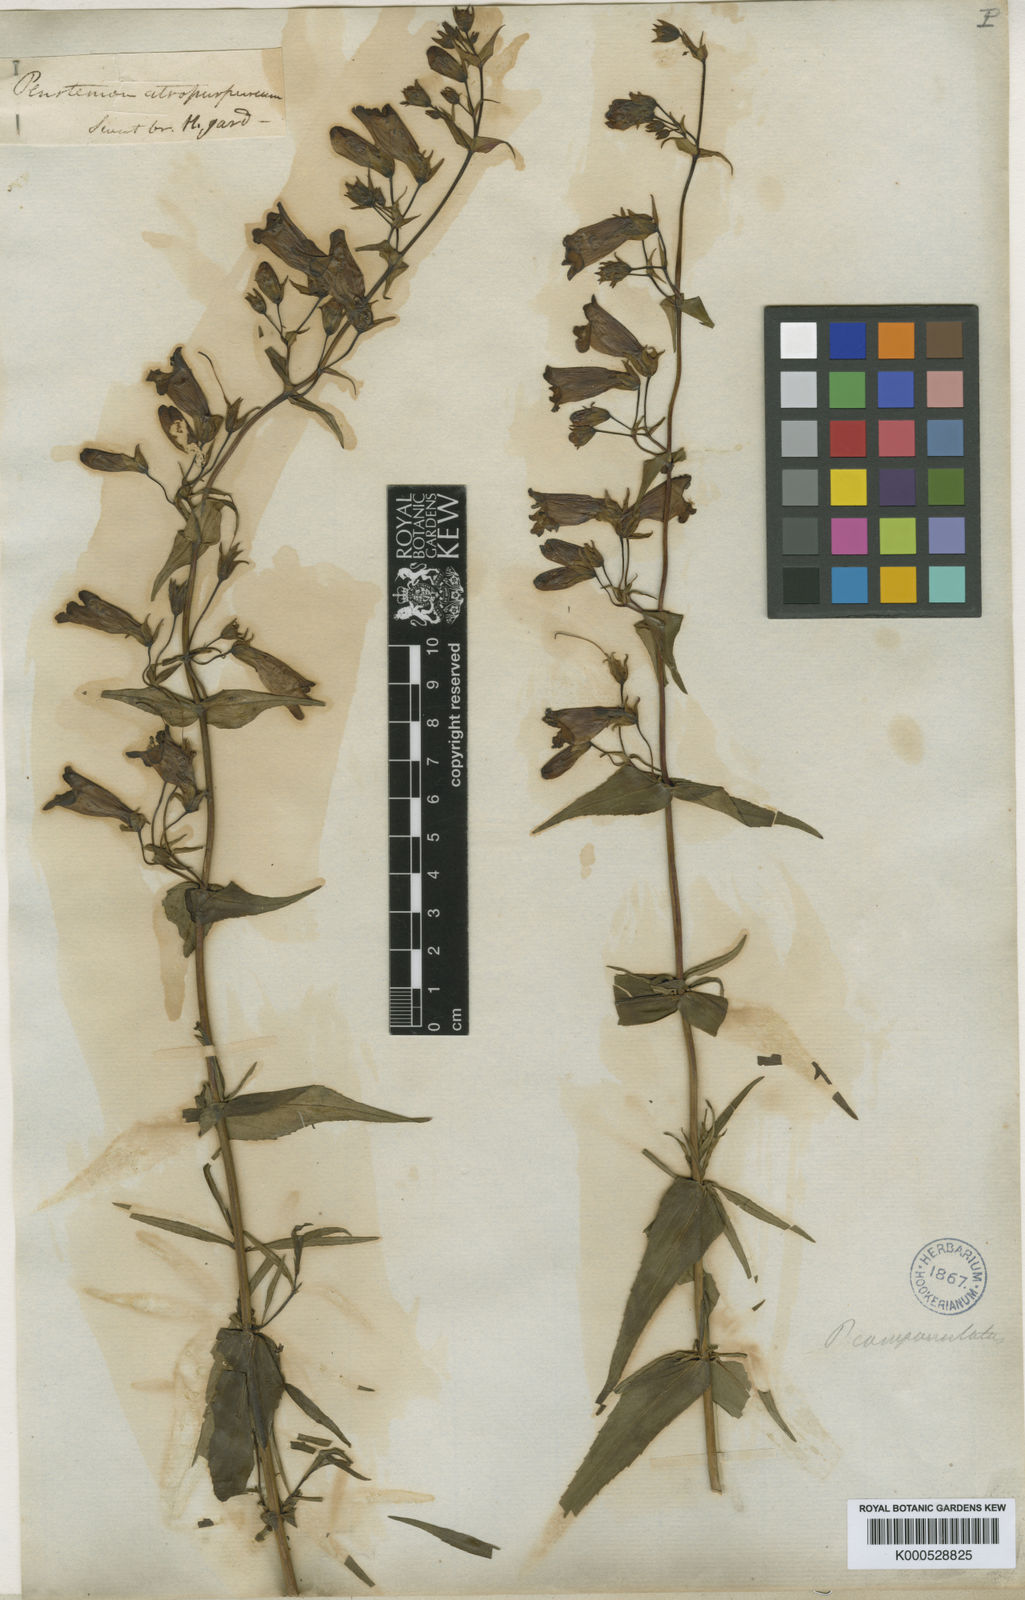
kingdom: Plantae
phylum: Tracheophyta
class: Magnoliopsida
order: Lamiales
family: Plantaginaceae
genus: Penstemon
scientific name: Penstemon atropurpureus
